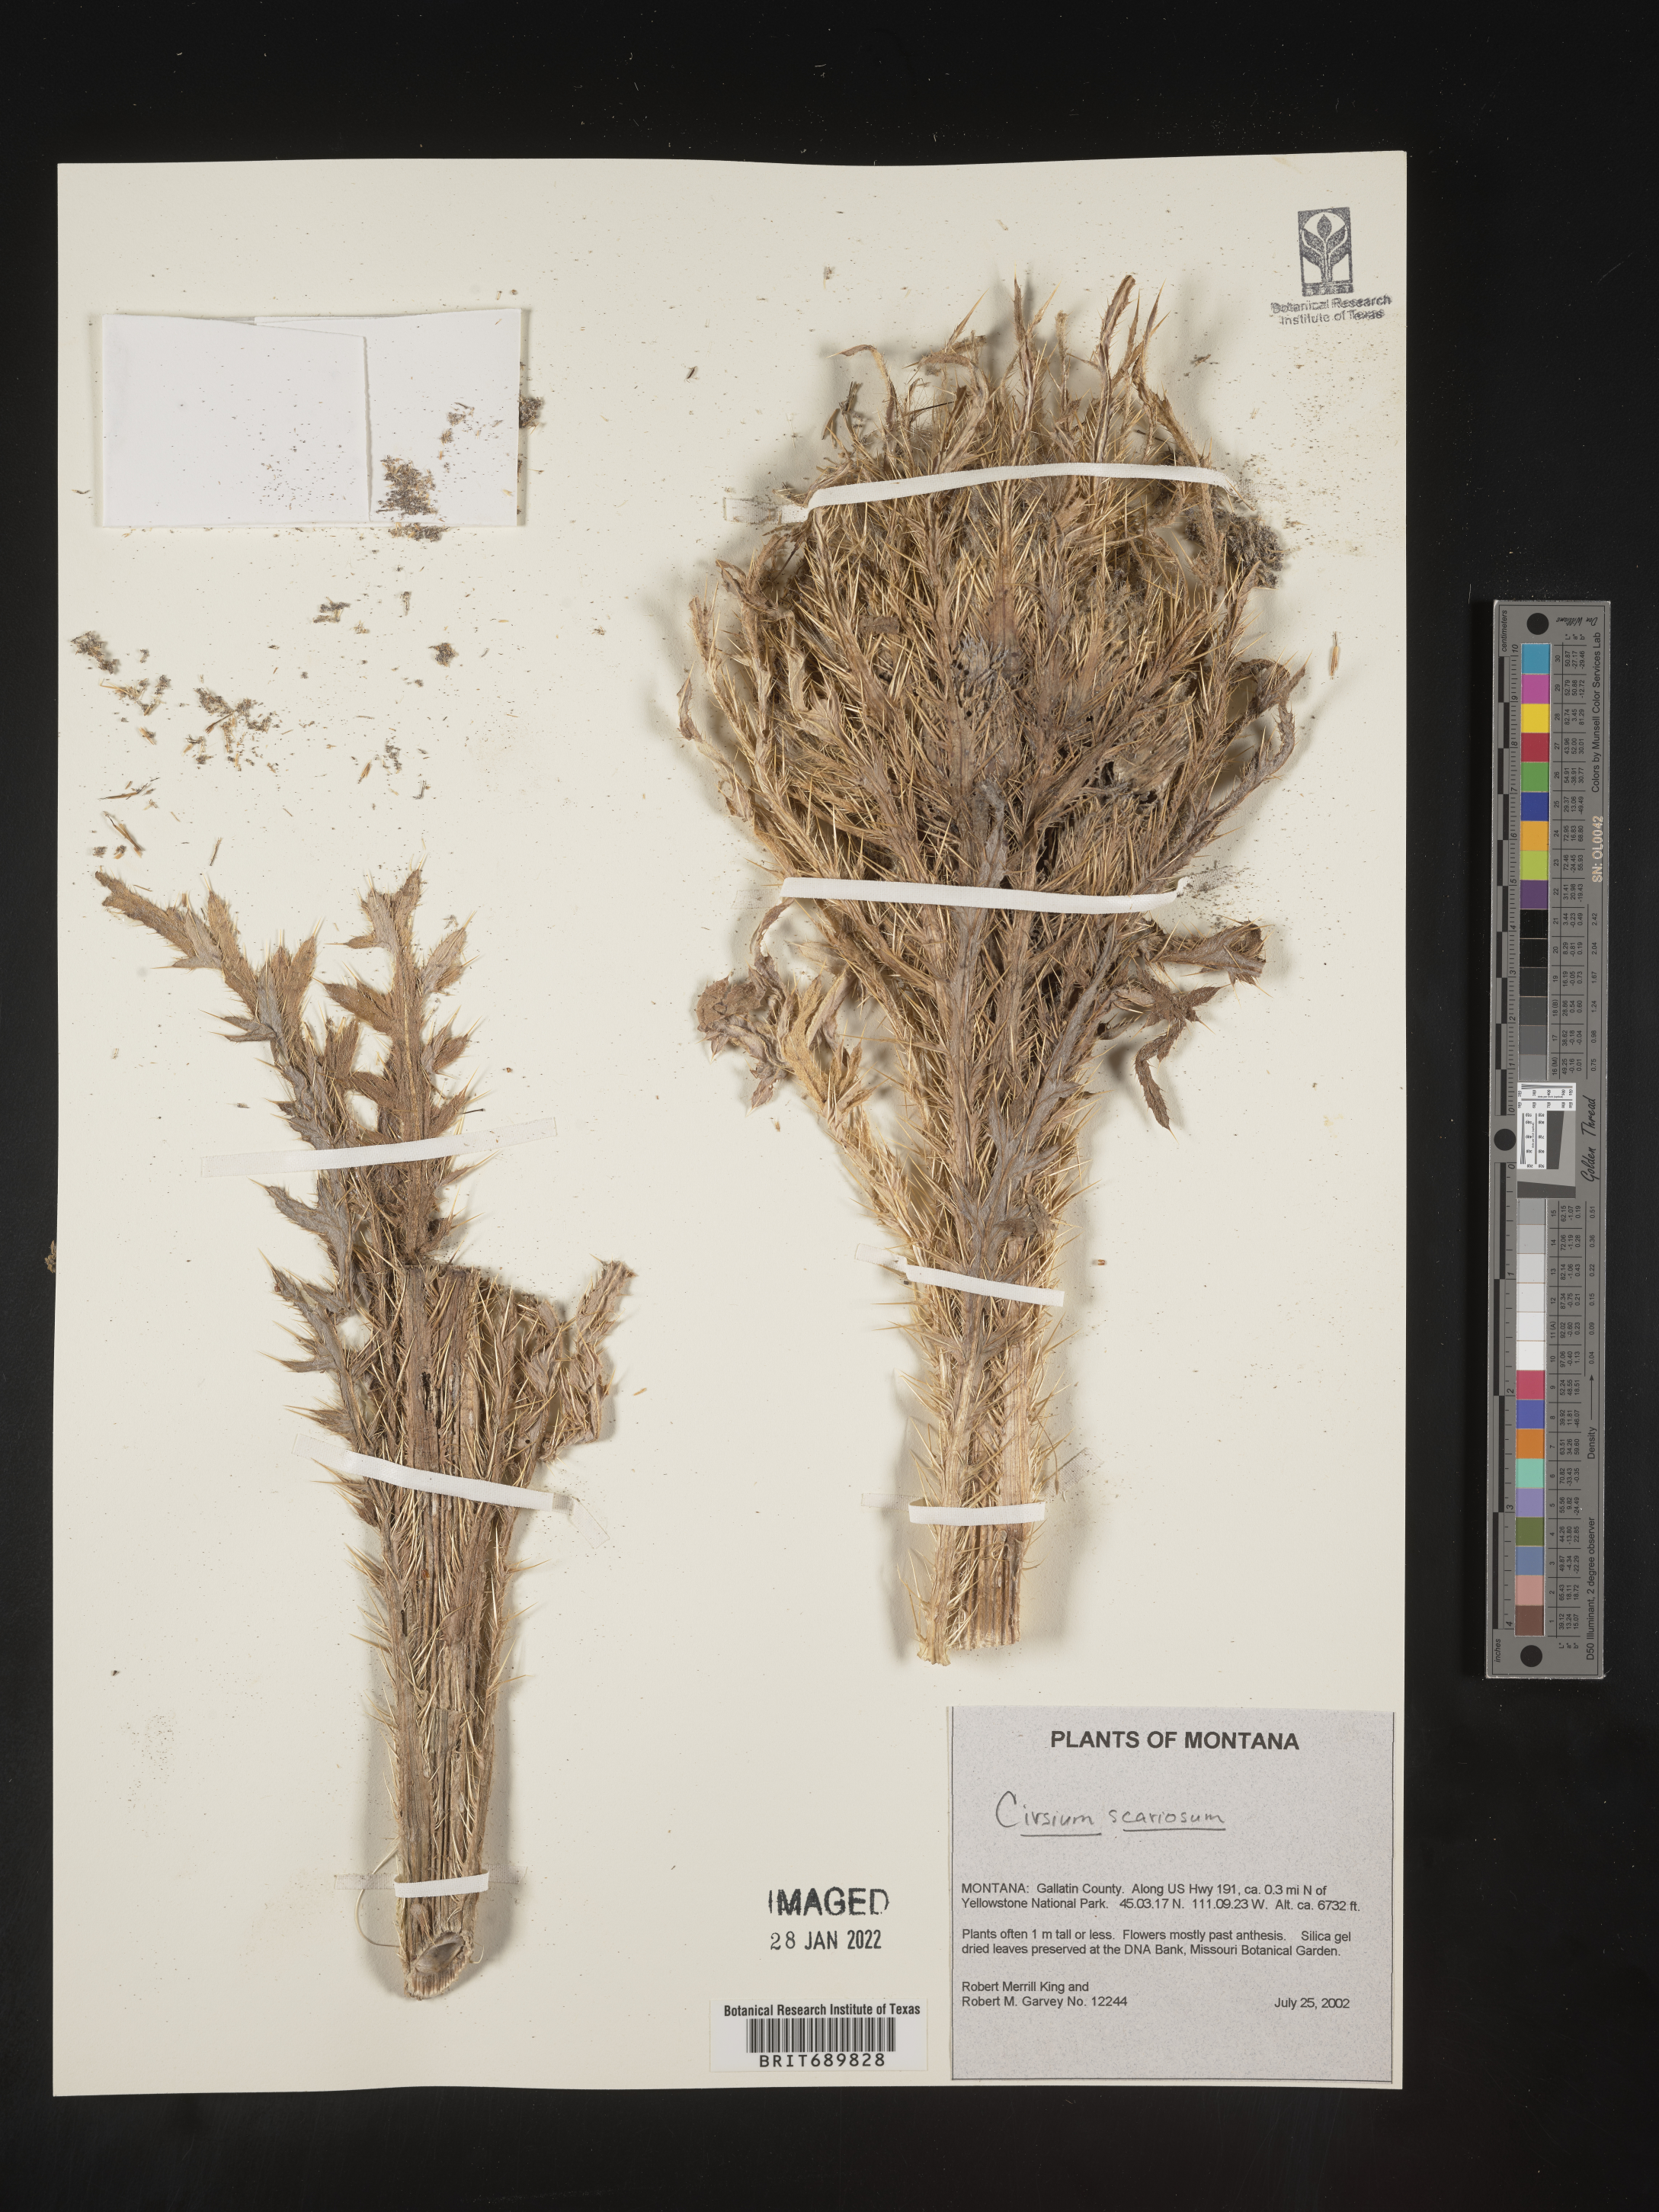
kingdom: Plantae
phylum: Tracheophyta
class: Magnoliopsida
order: Asterales
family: Asteraceae
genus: Cirsium
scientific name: Cirsium scariosum
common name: Meadow thistle
